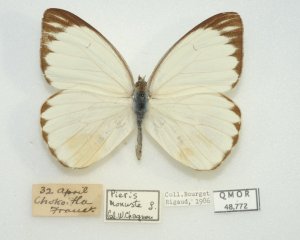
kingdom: Animalia
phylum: Arthropoda
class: Insecta
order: Lepidoptera
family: Pieridae
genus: Ascia
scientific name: Ascia monuste
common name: Great Southern White
